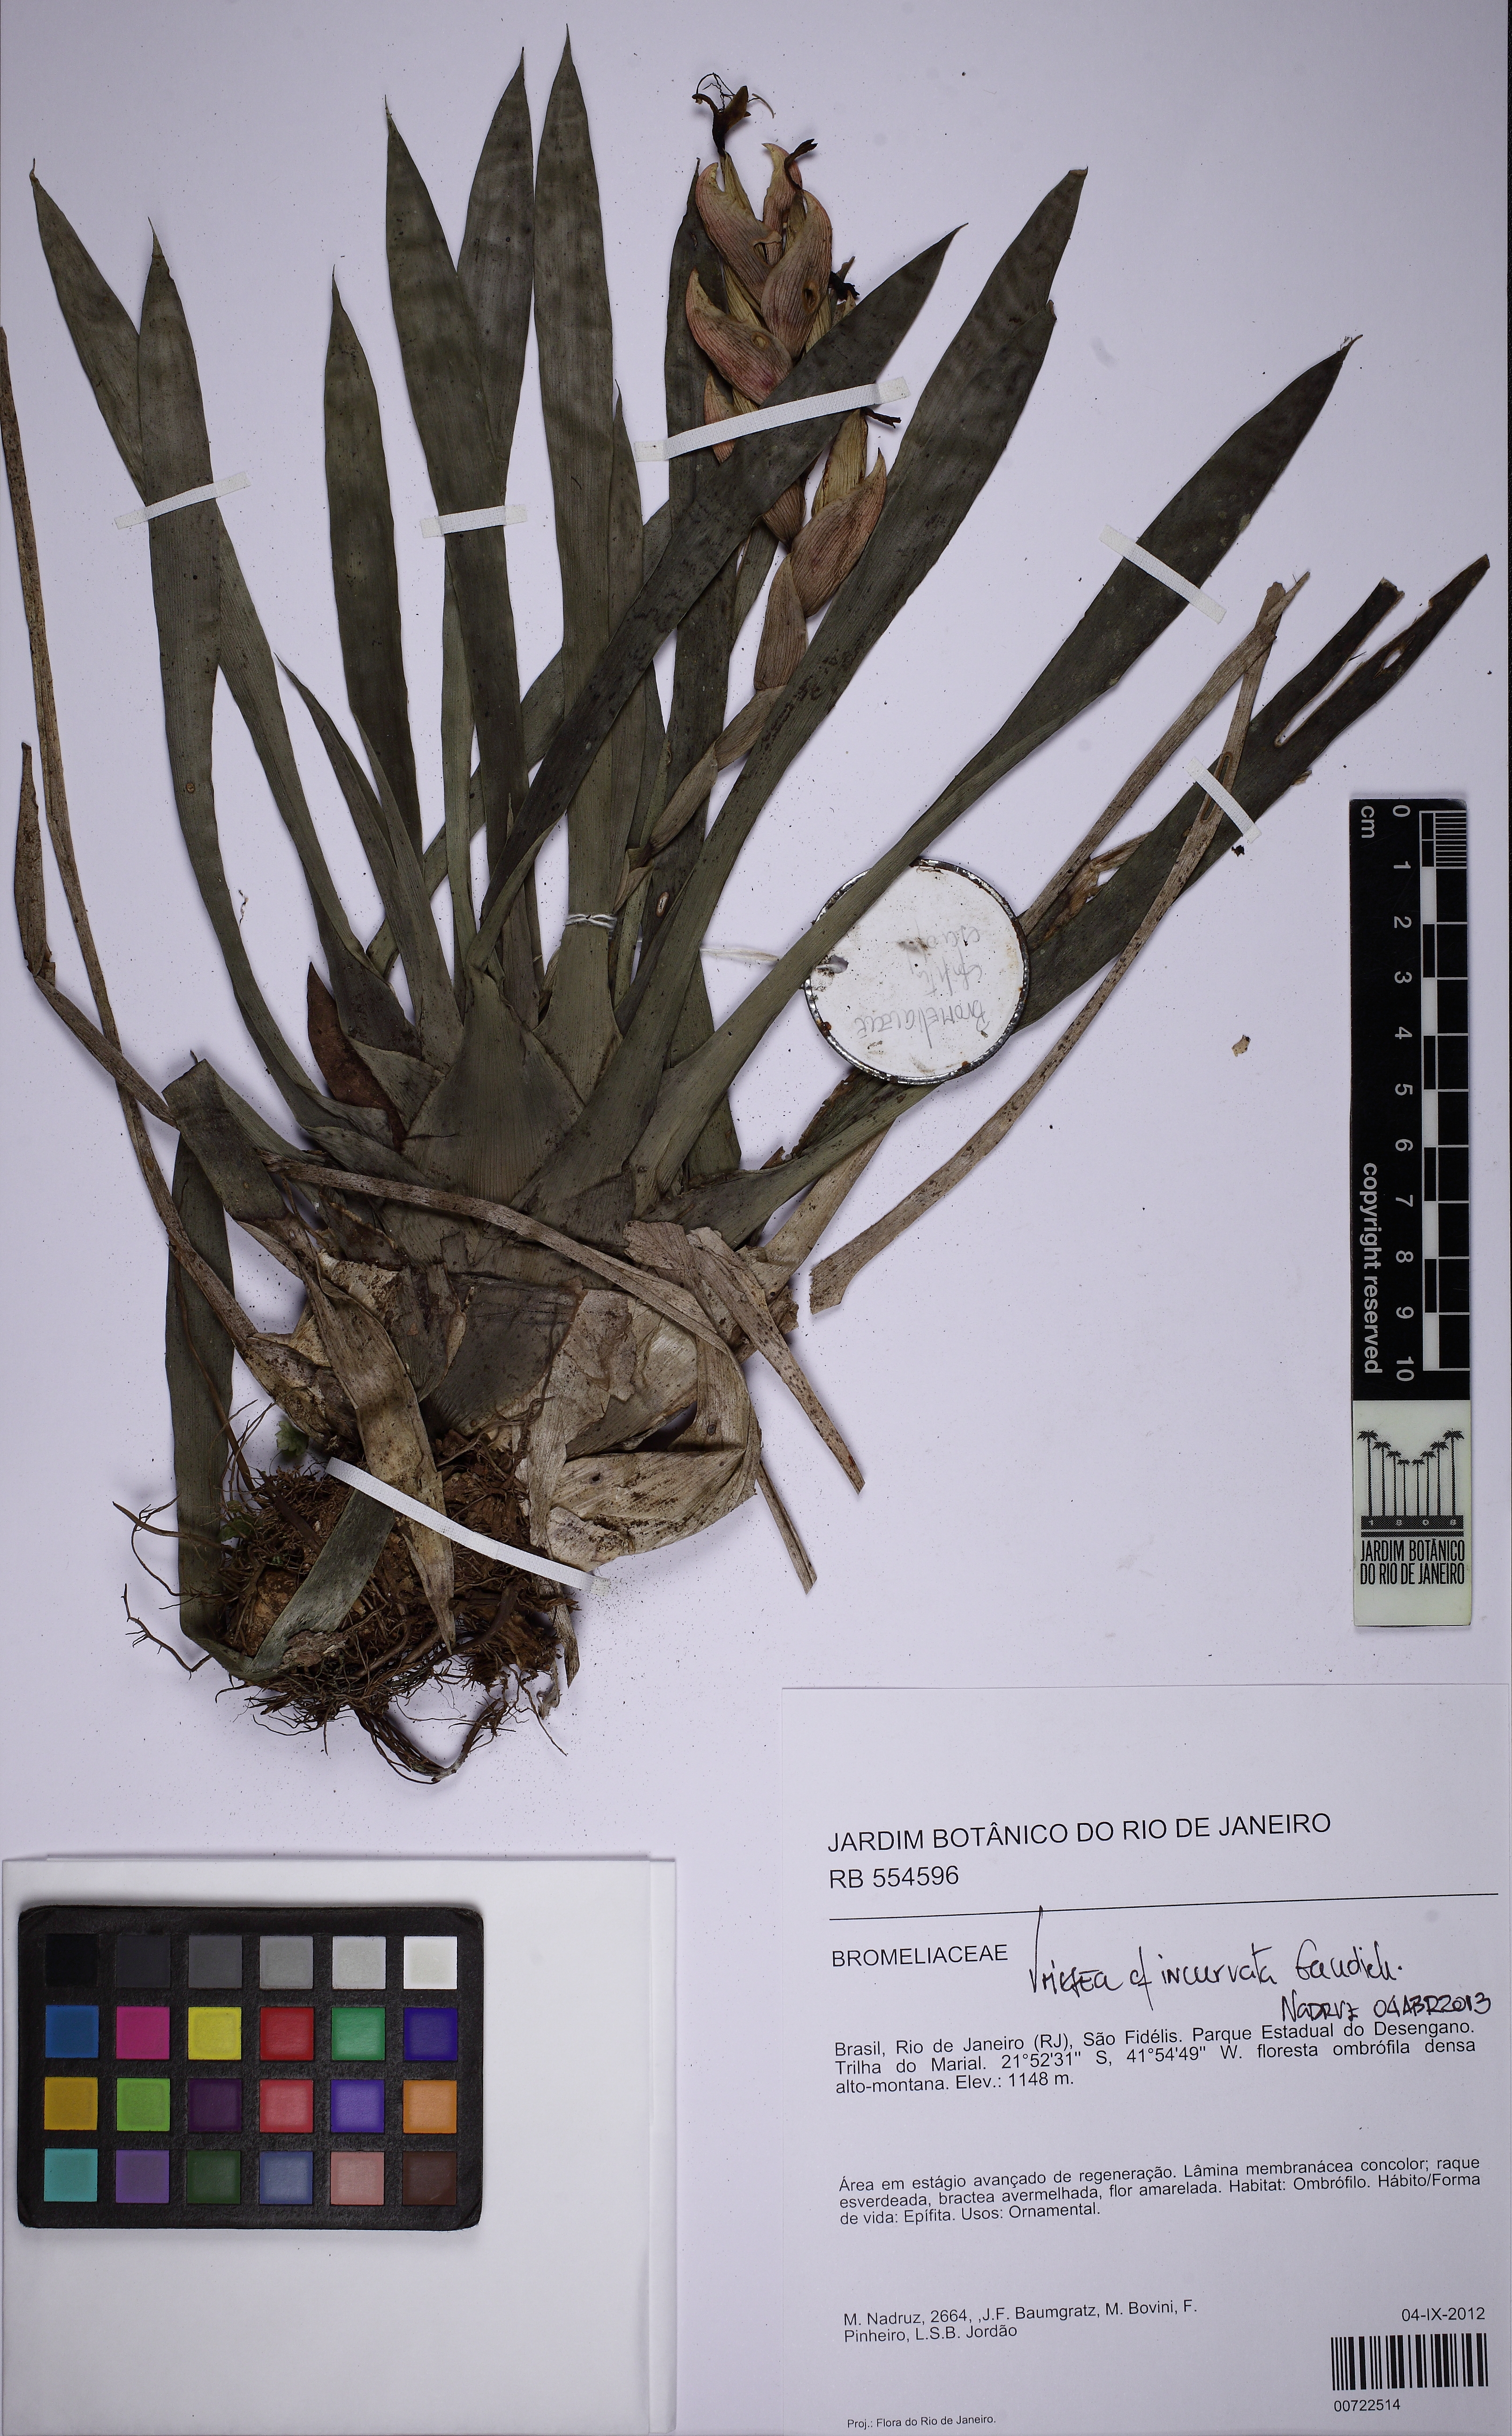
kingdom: Plantae
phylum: Tracheophyta
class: Liliopsida
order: Poales
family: Bromeliaceae
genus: Vriesea
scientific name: Vriesea modesta
